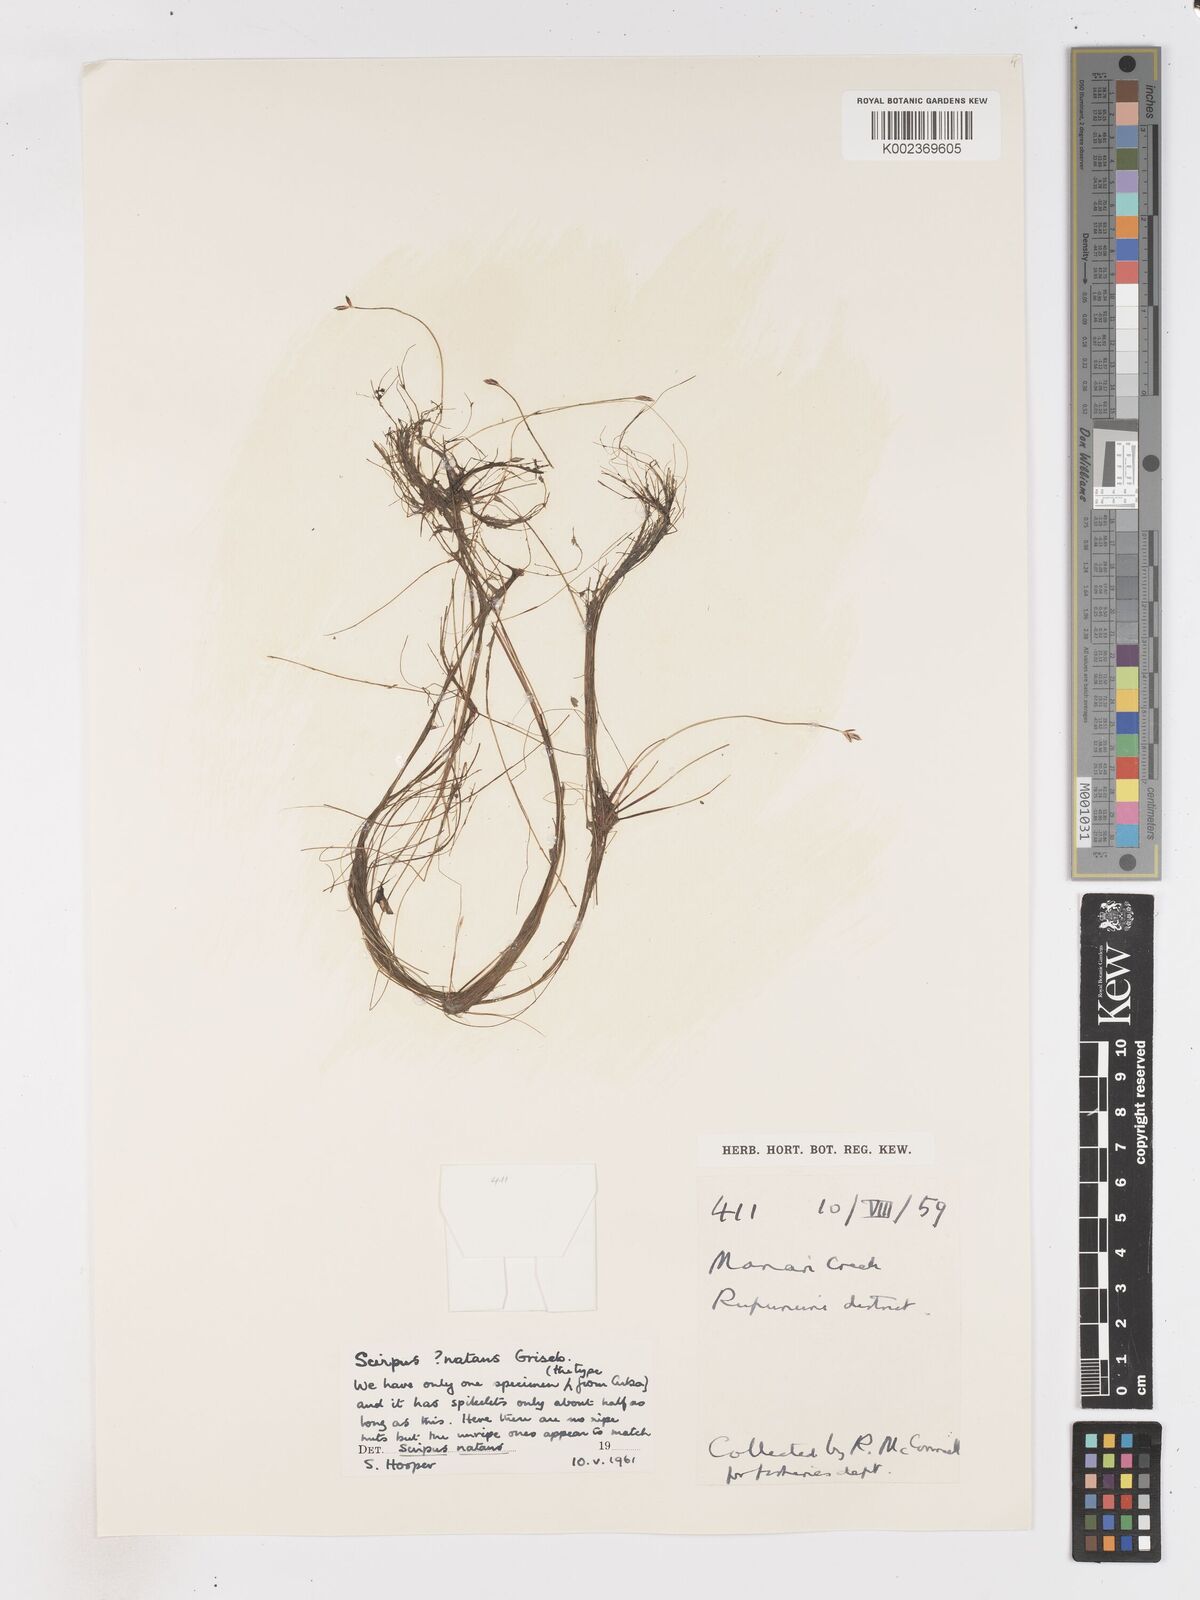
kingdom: Plantae
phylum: Tracheophyta
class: Liliopsida
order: Poales
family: Cyperaceae
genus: Isolepis
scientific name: Isolepis natans
